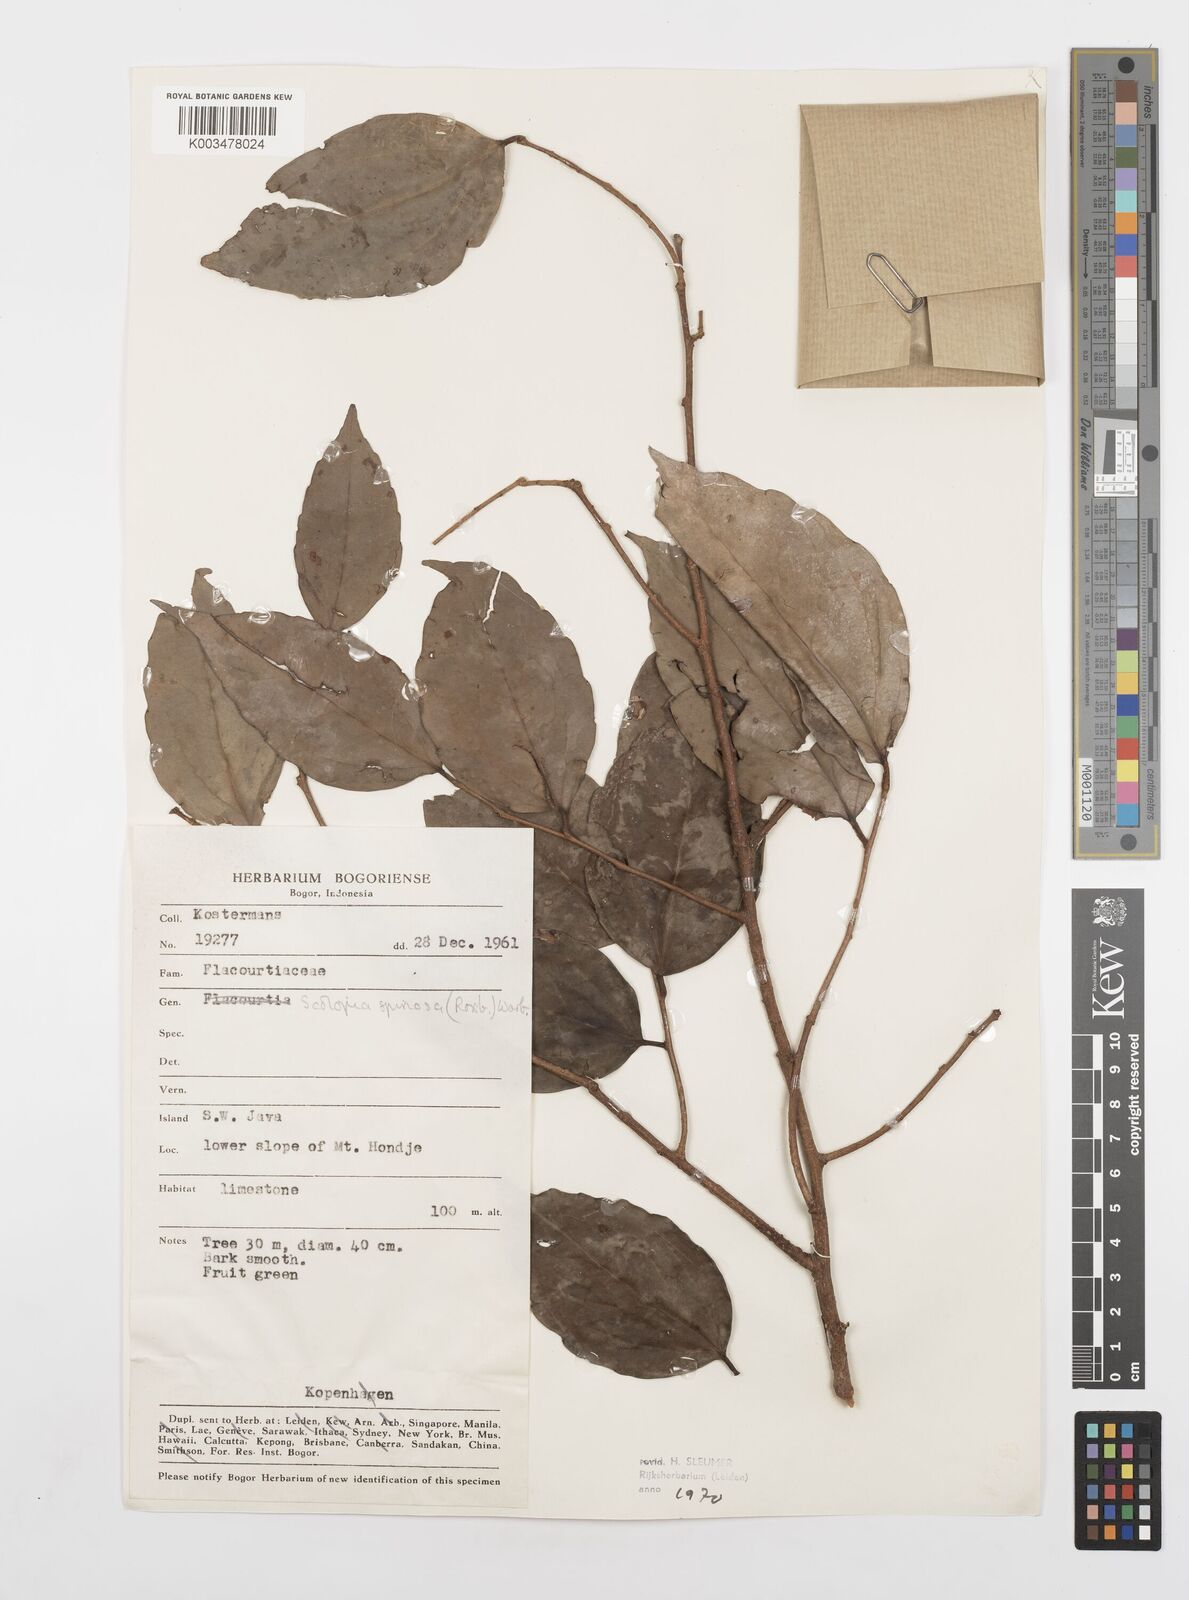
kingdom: Plantae
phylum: Tracheophyta
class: Magnoliopsida
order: Malpighiales
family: Salicaceae
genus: Scolopia
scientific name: Scolopia spinosa
